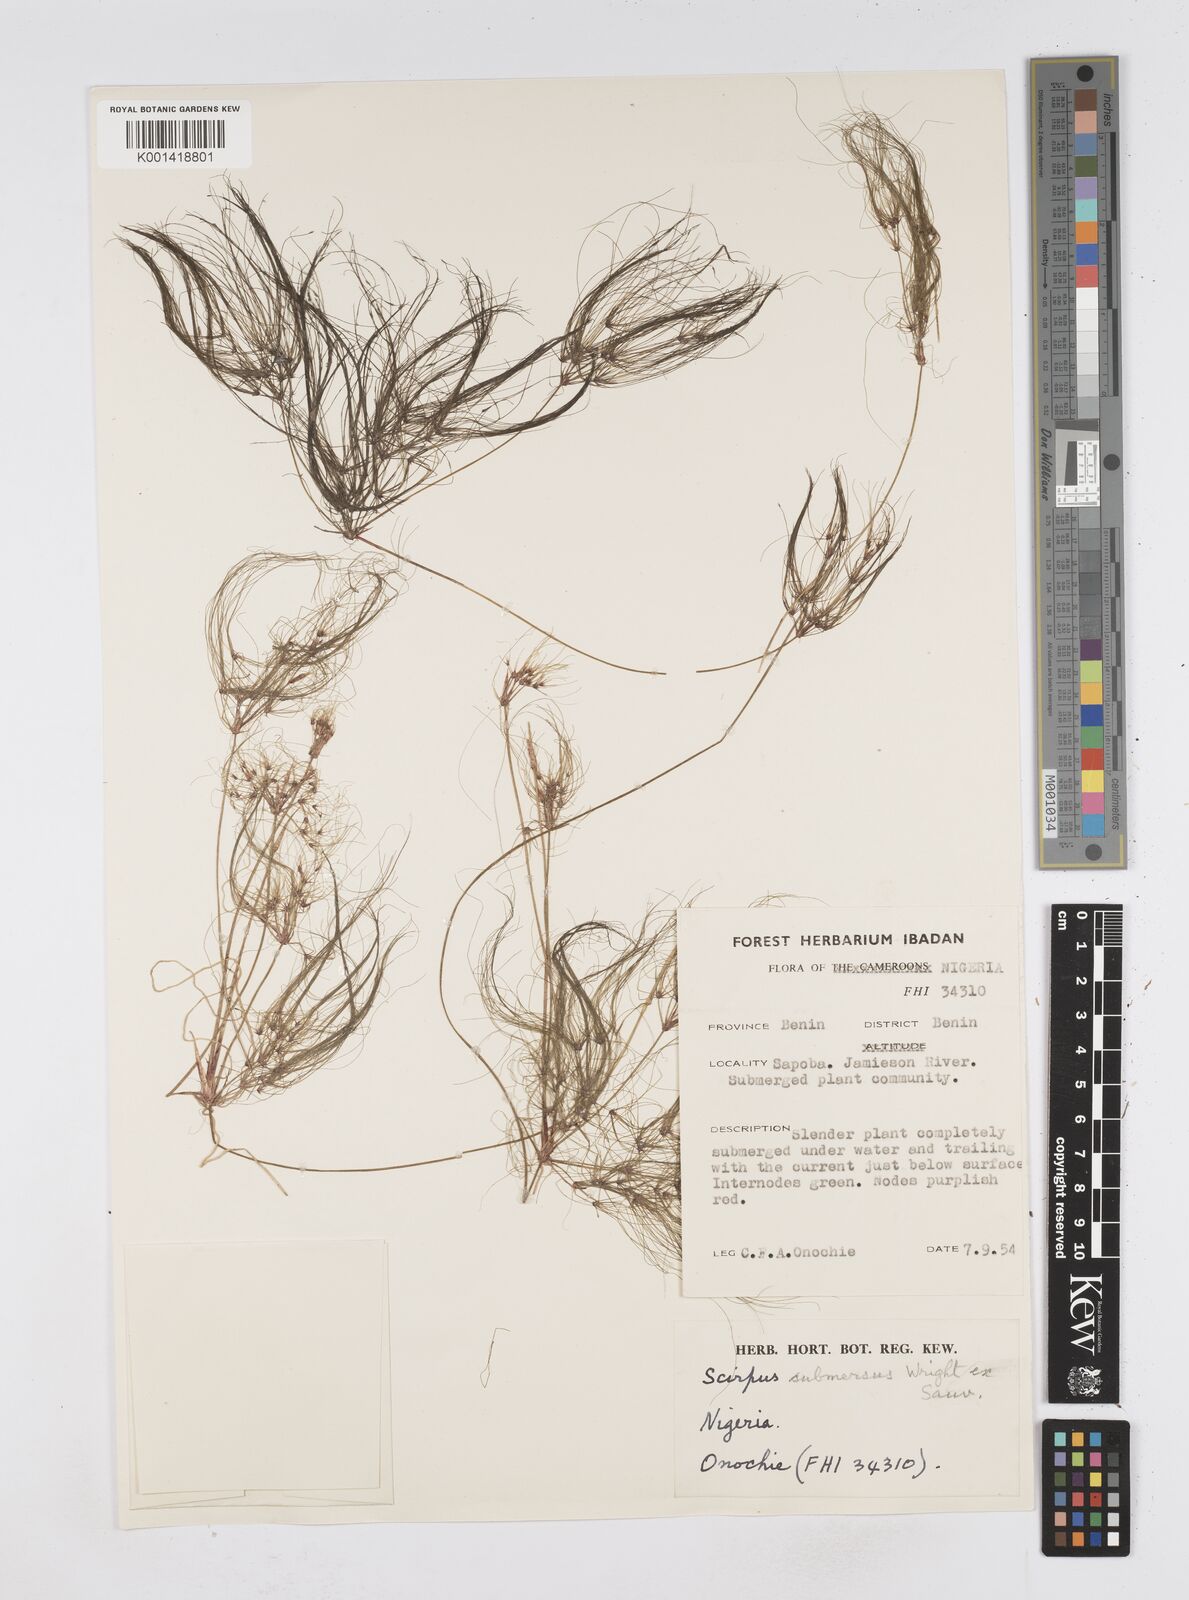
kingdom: Plantae
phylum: Tracheophyta
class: Liliopsida
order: Poales
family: Cyperaceae
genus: Eleocharis
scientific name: Eleocharis confervoides
